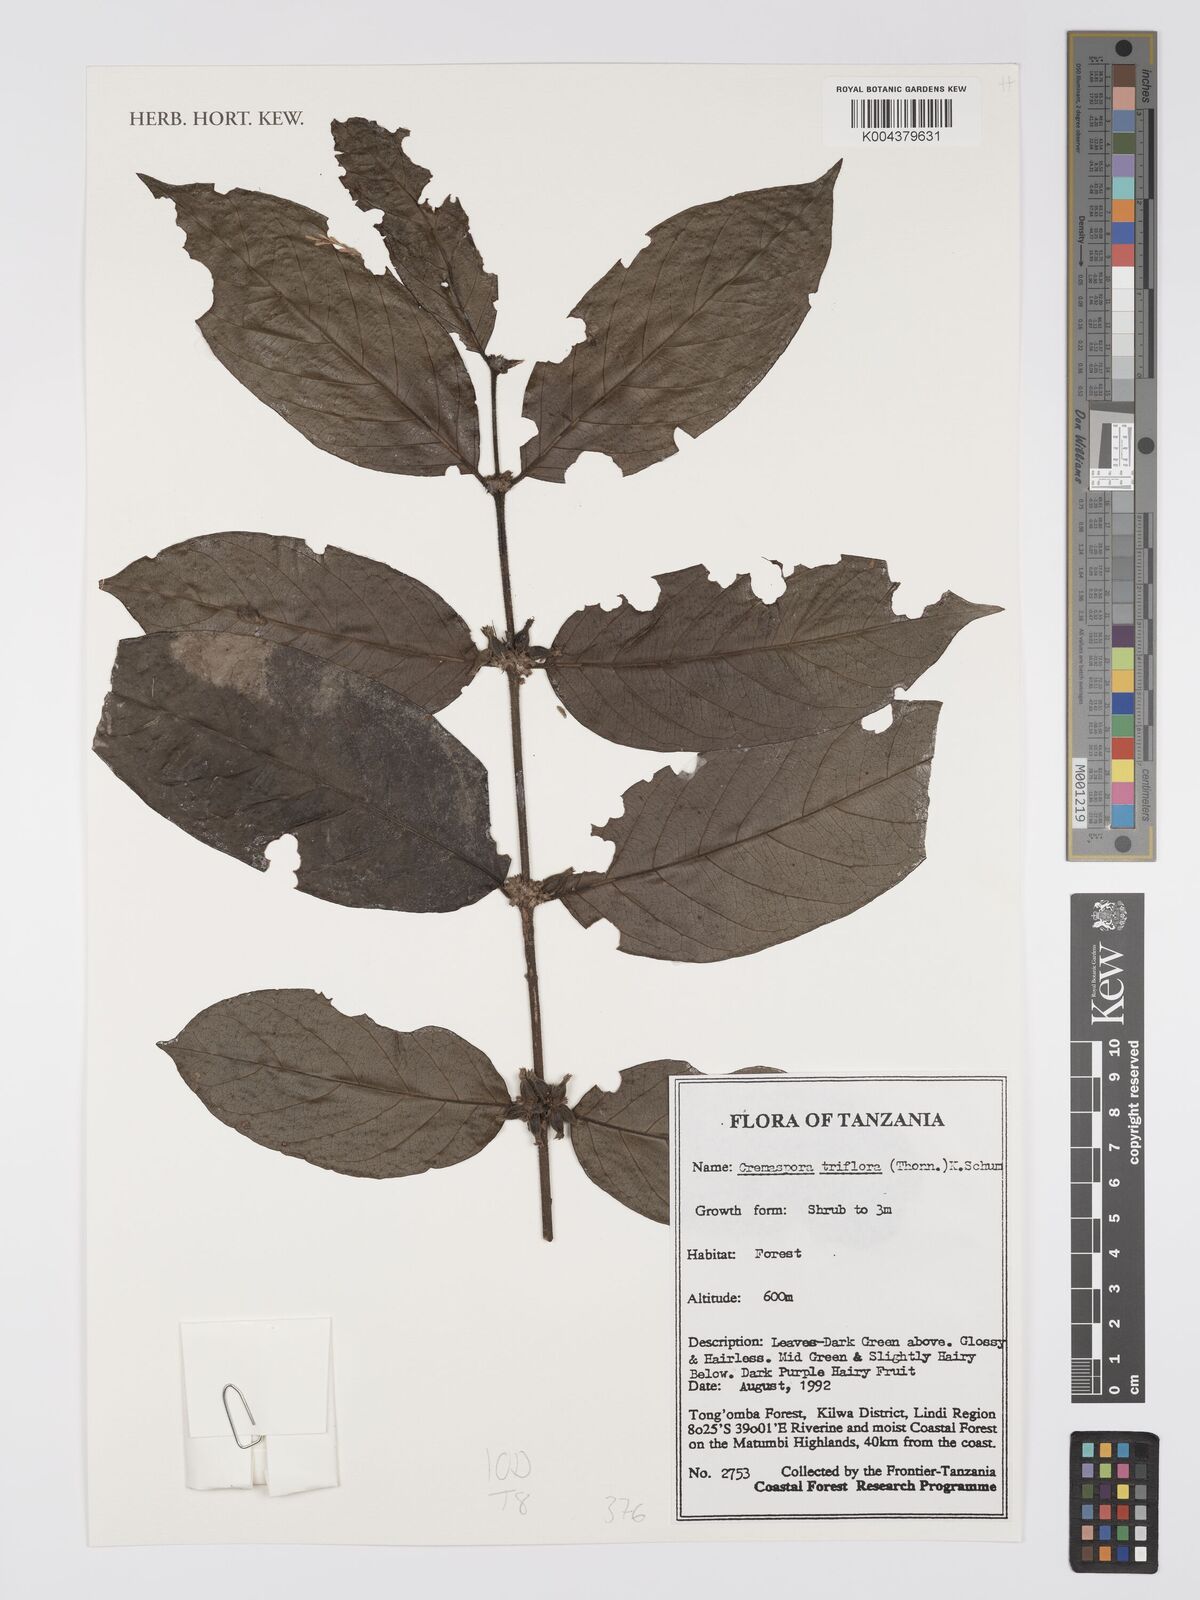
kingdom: Plantae
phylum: Tracheophyta
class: Magnoliopsida
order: Gentianales
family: Rubiaceae
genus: Cremaspora
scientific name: Cremaspora triflora
